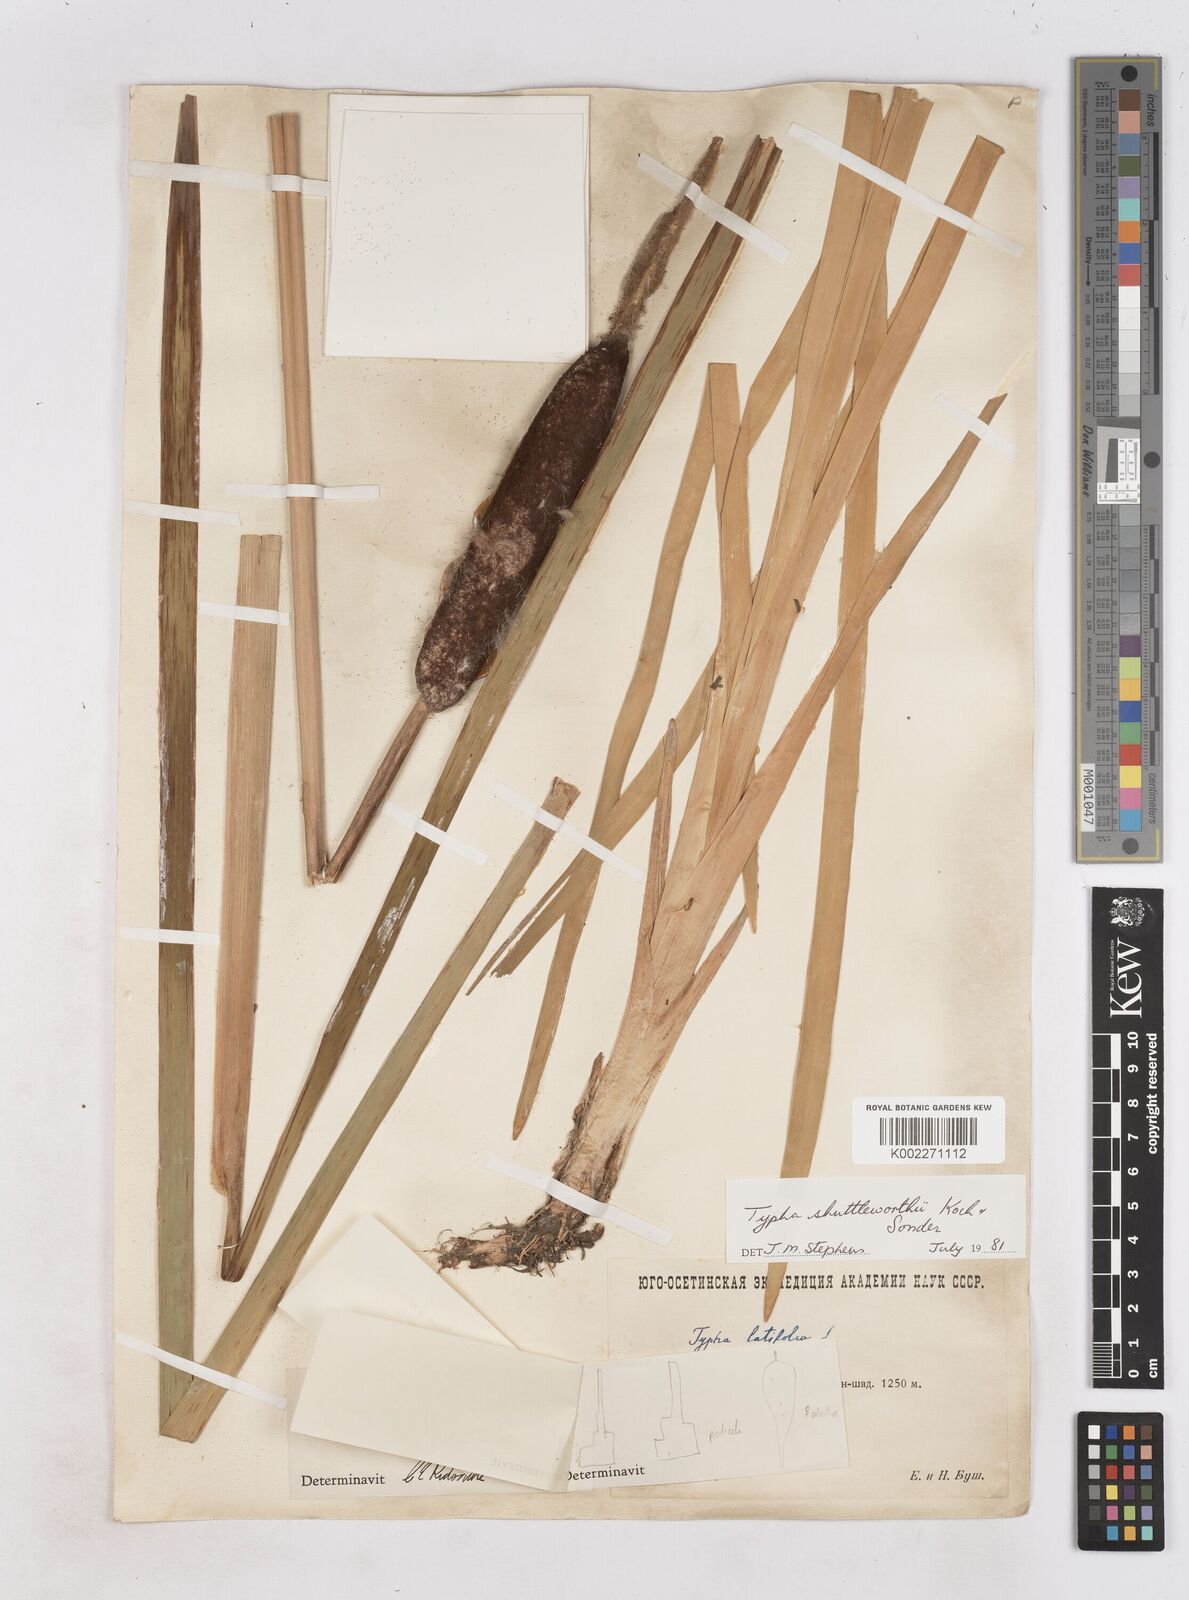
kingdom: Plantae
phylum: Tracheophyta
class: Liliopsida
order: Poales
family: Typhaceae
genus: Typha
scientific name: Typha shuttleworthii
